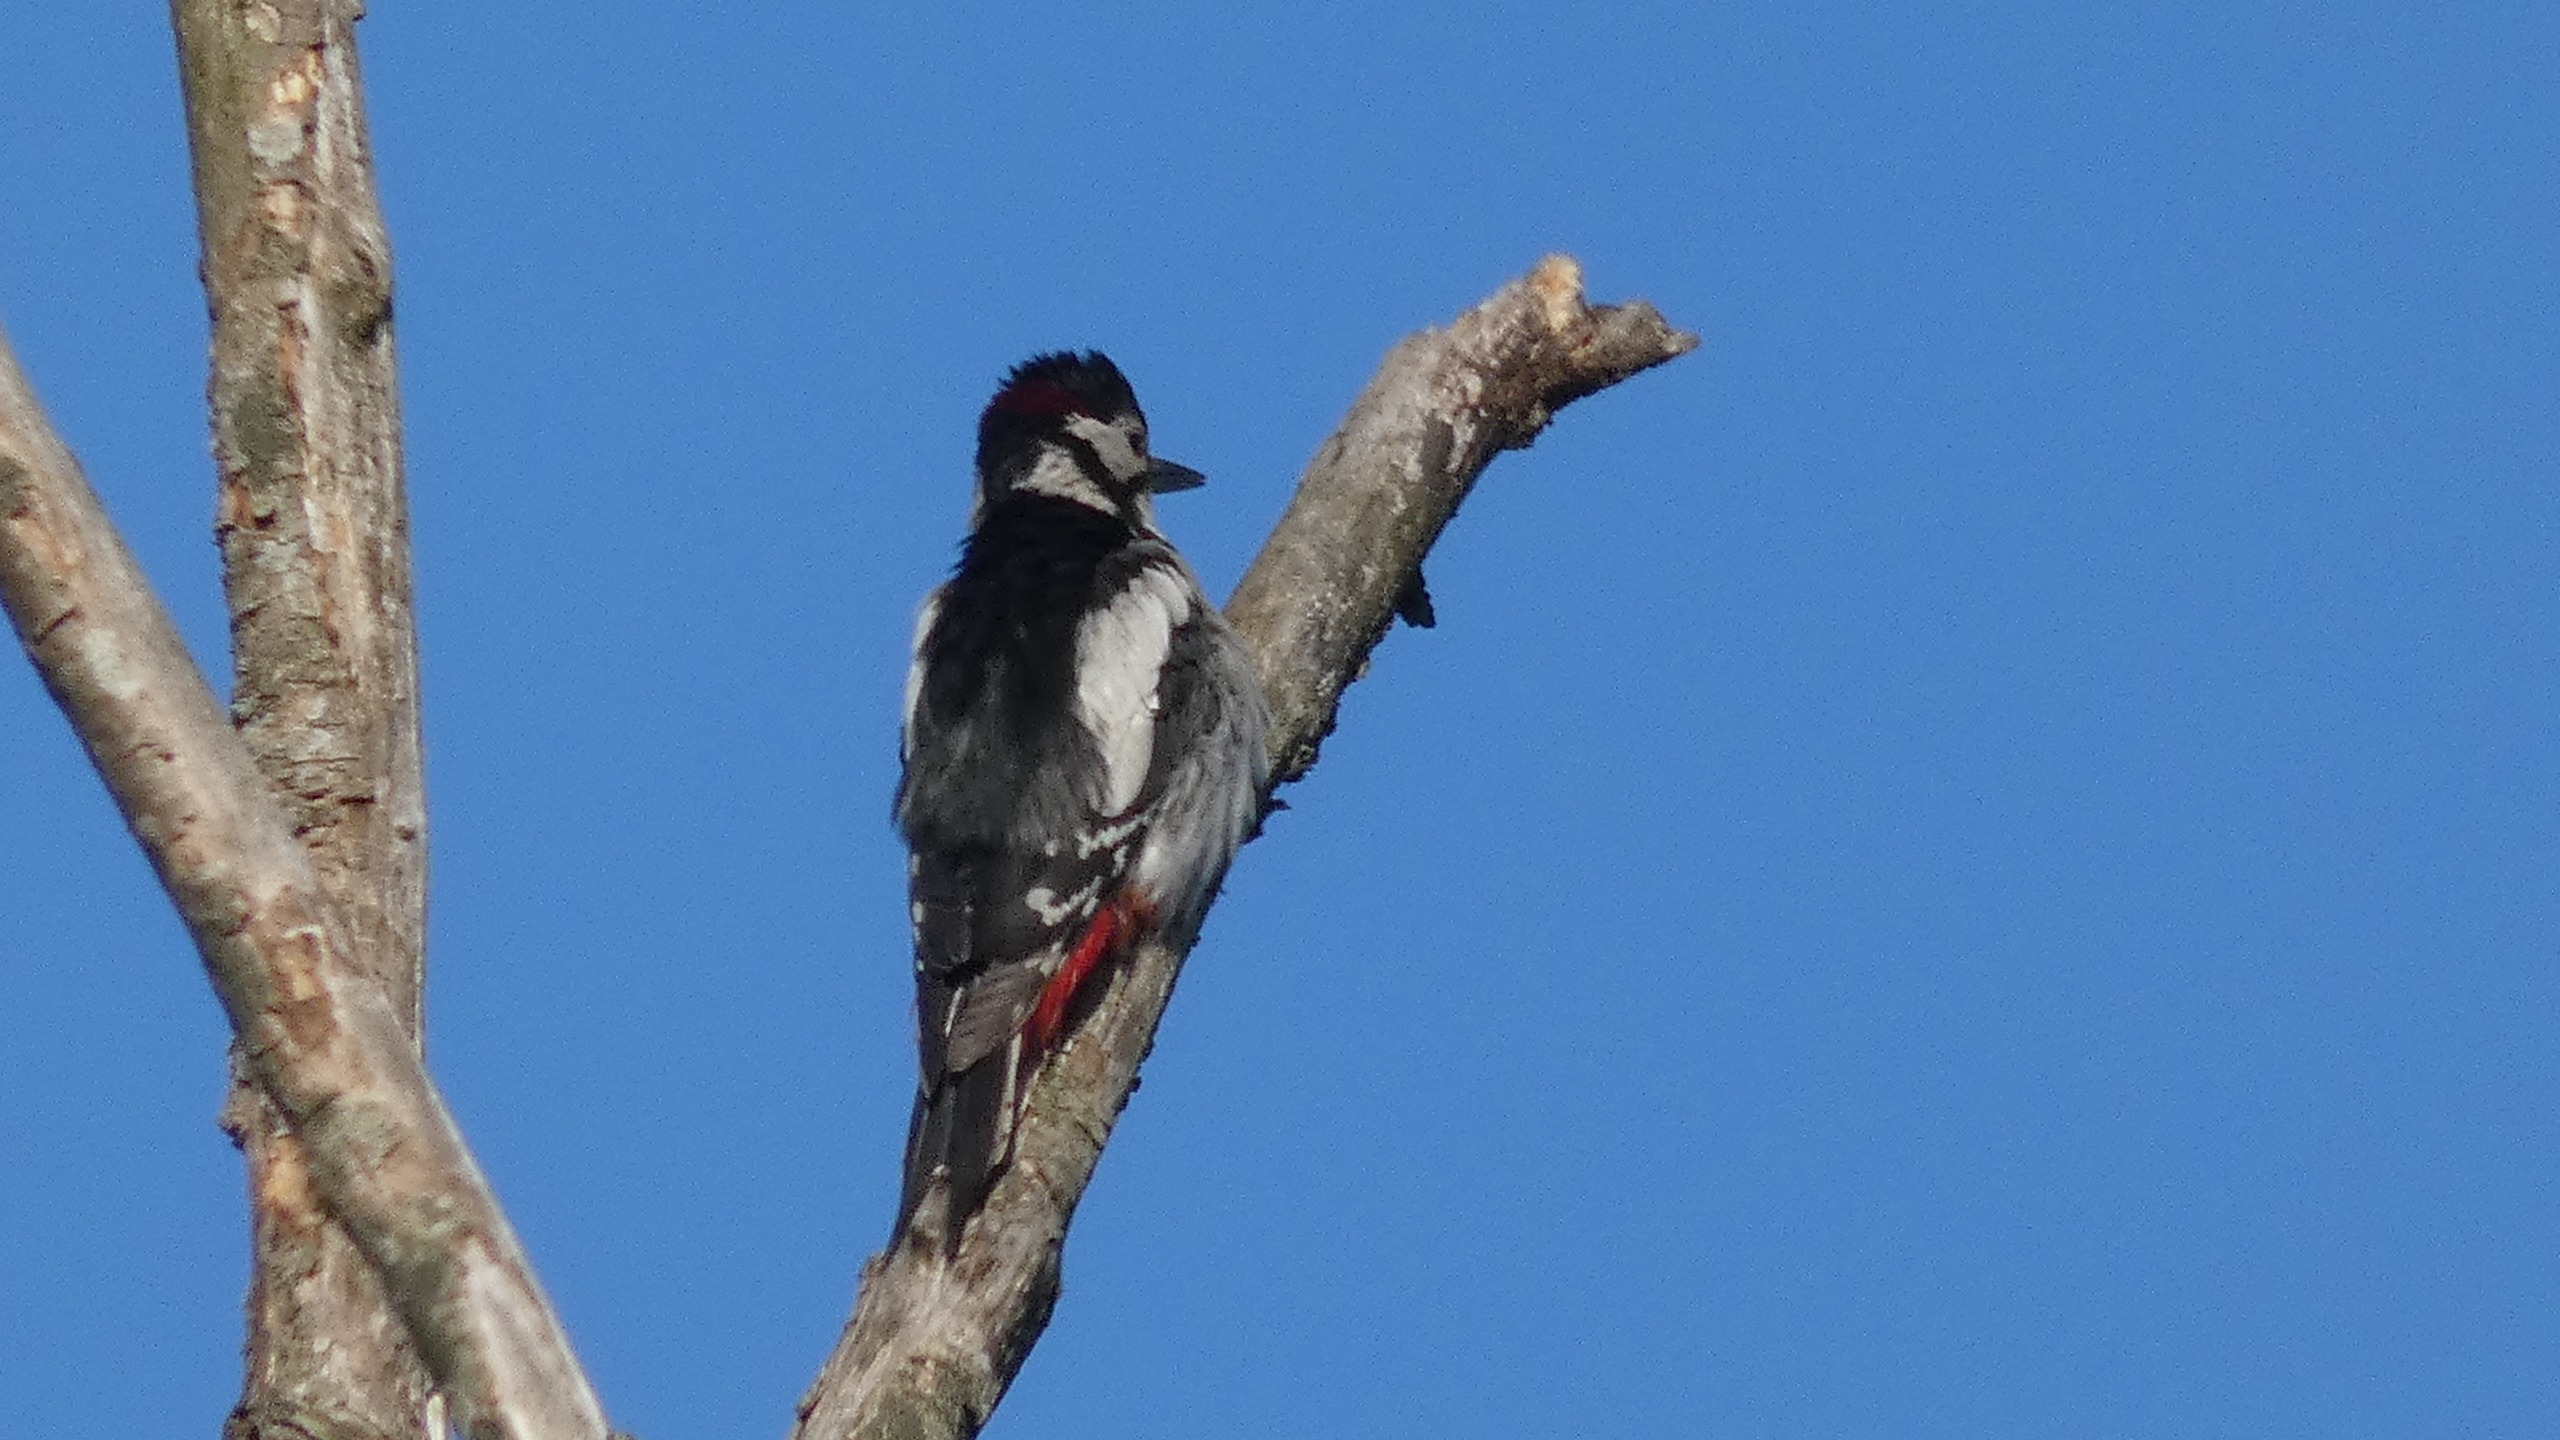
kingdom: Animalia
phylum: Chordata
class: Aves
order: Piciformes
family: Picidae
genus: Dendrocopos
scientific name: Dendrocopos major
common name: Stor flagspætte
